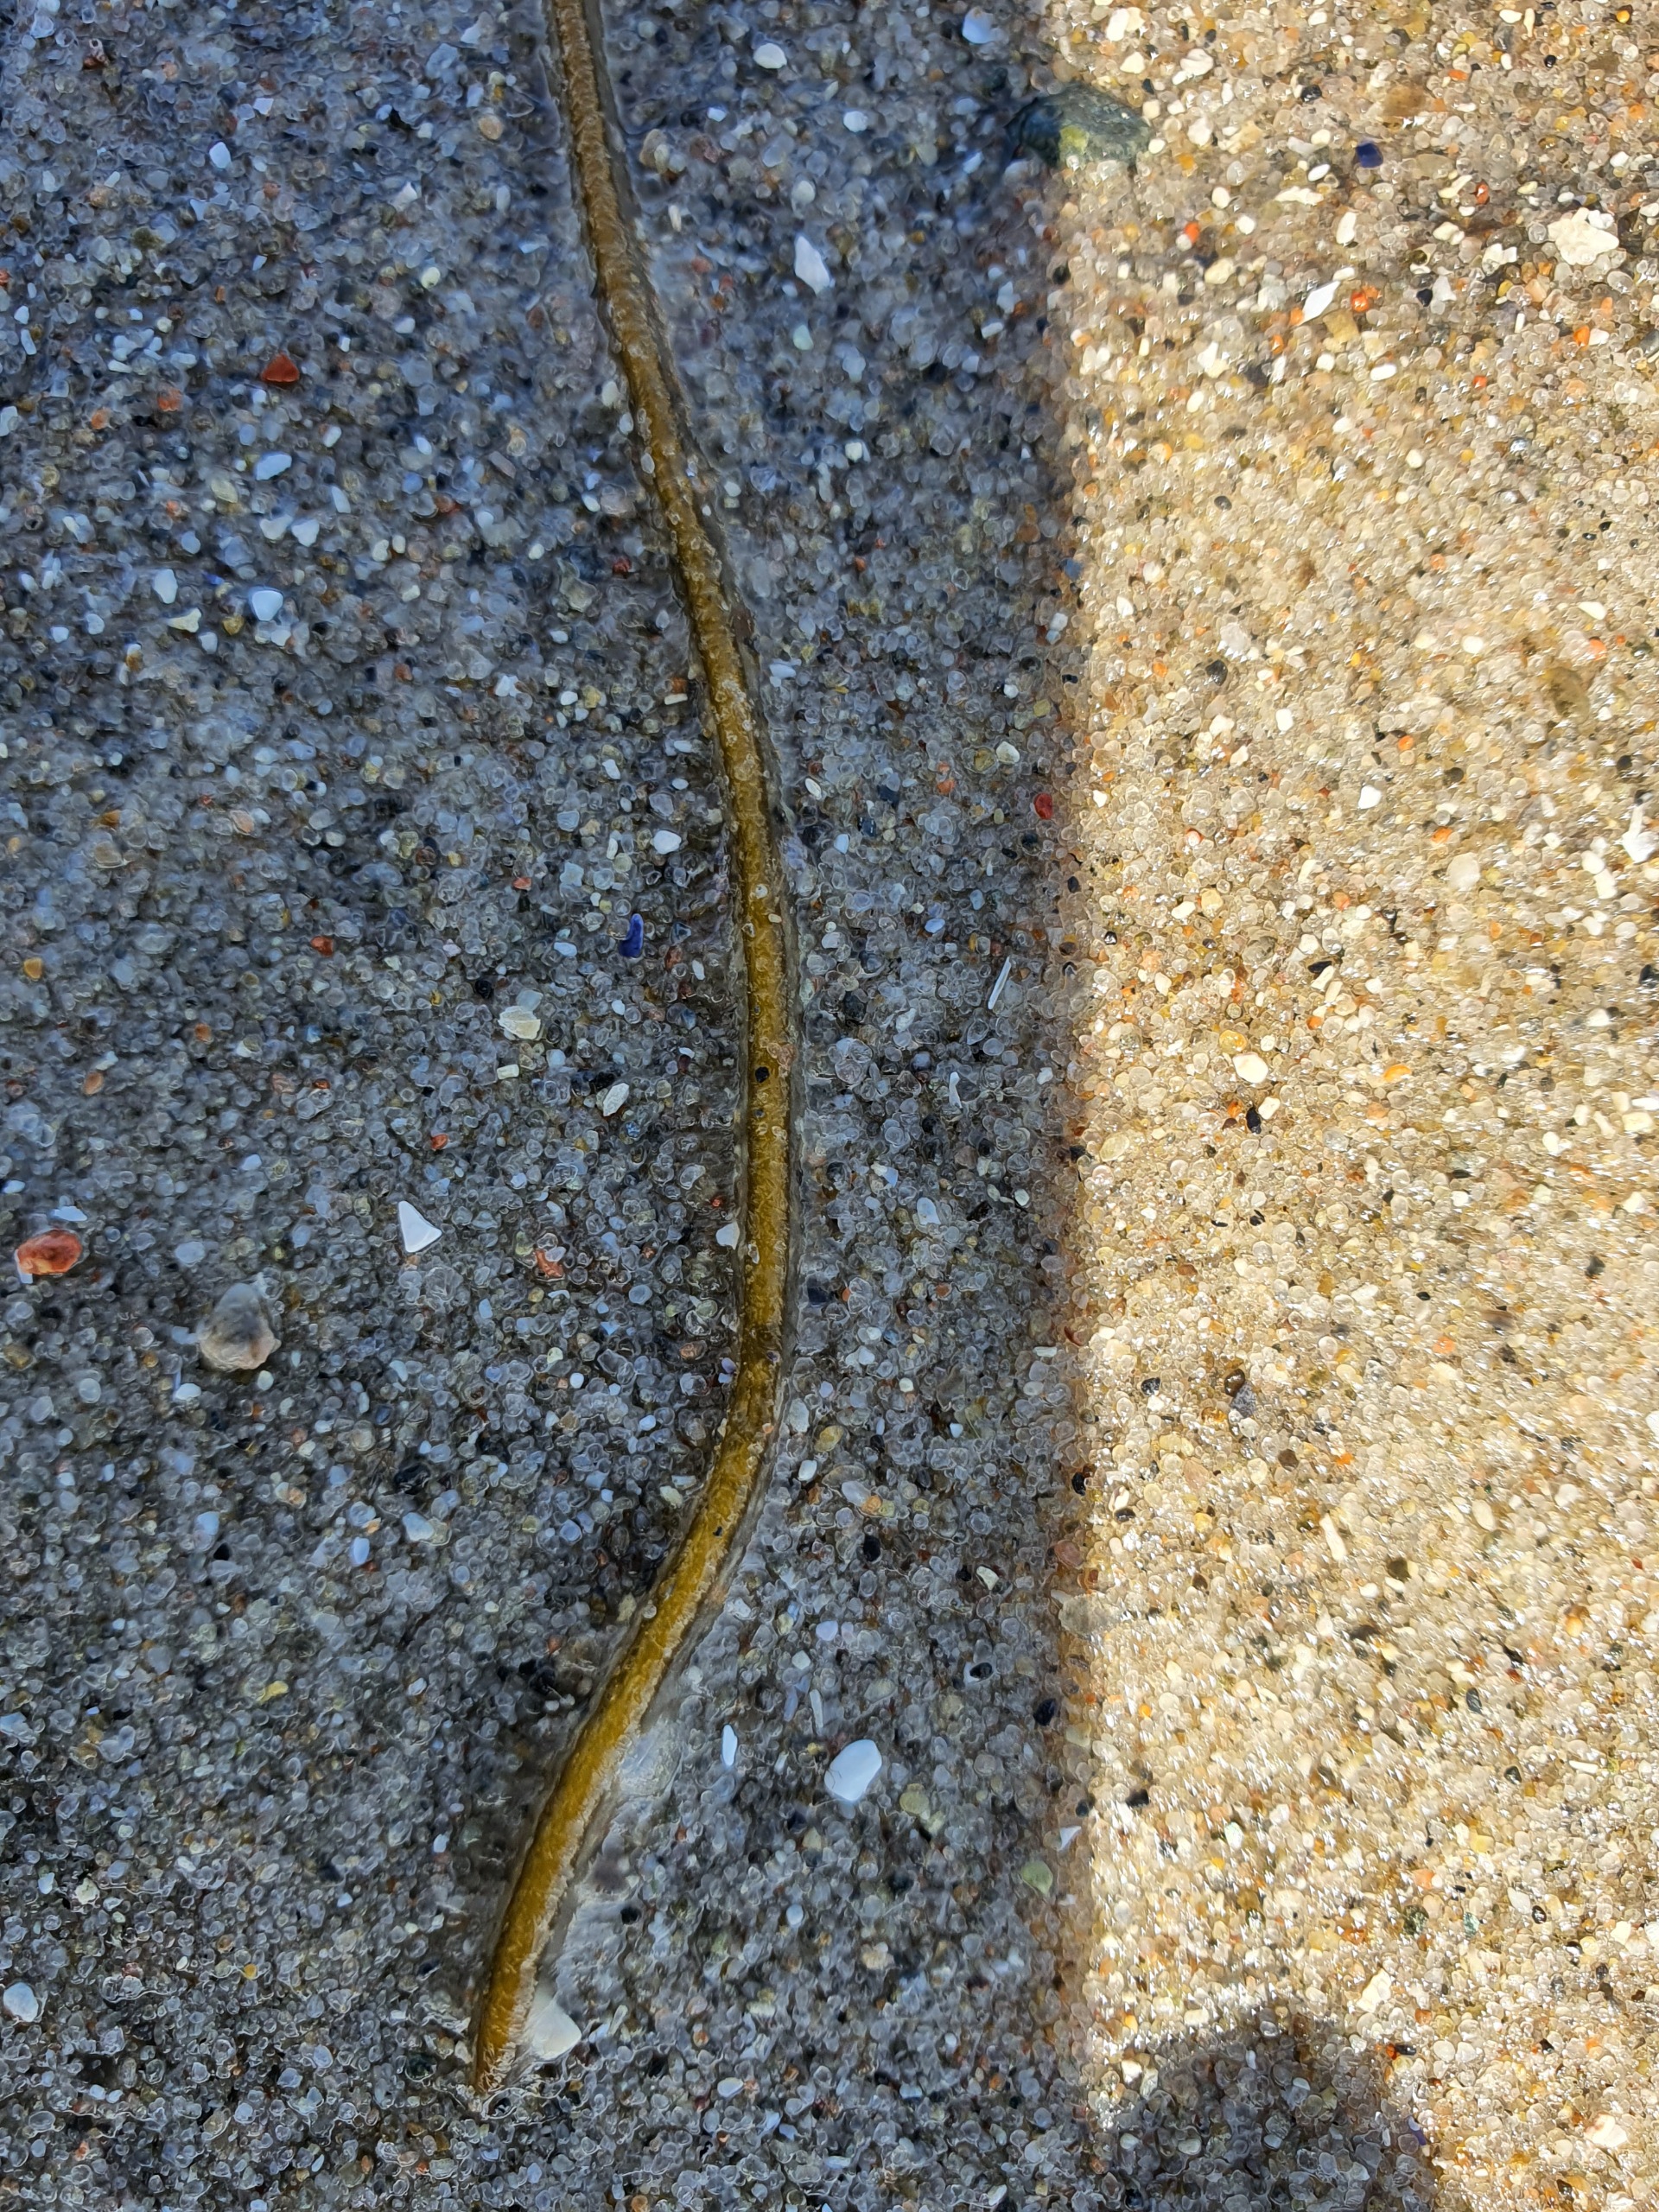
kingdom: Chromista
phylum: Ochrophyta
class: Phaeophyceae
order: Laminariales
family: Chordaceae
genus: Chorda
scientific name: Chorda filum
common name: Strengetang
